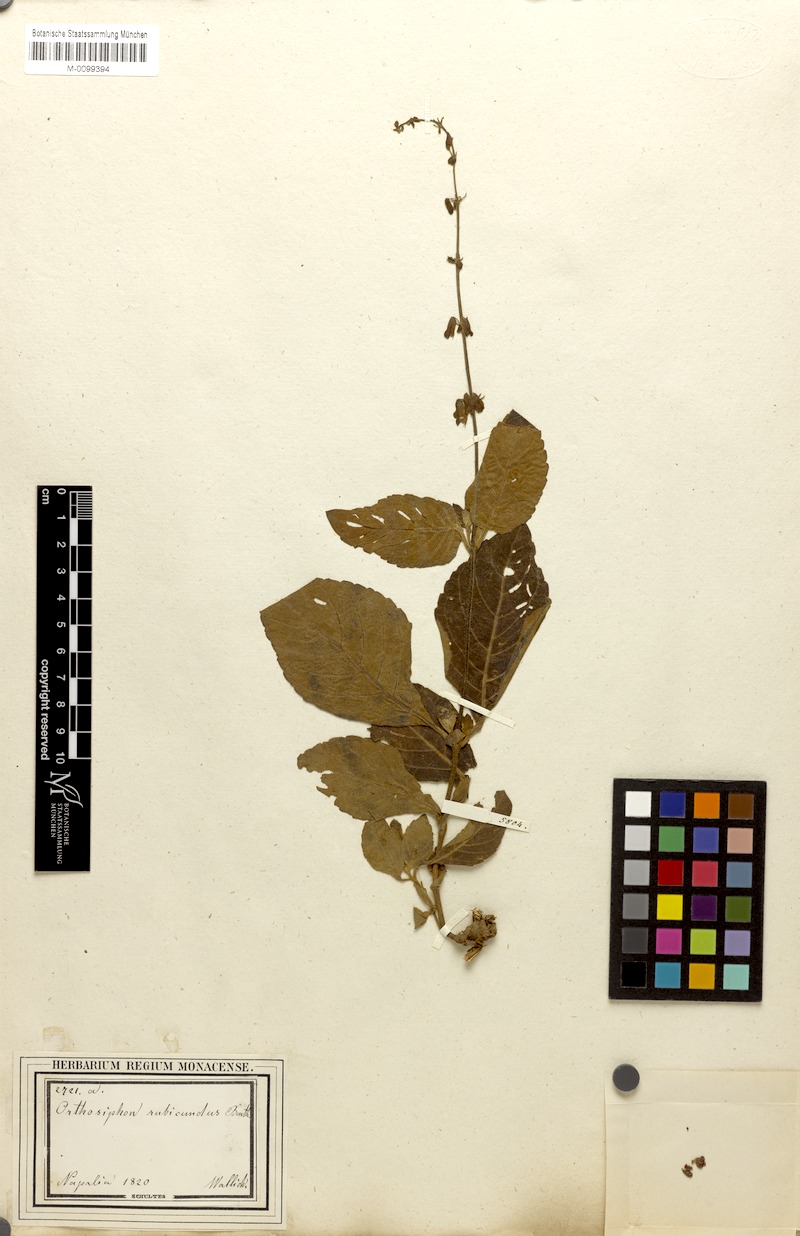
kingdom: Plantae
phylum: Tracheophyta
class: Magnoliopsida
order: Lamiales
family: Lamiaceae
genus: Orthosiphon
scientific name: Orthosiphon rubicundus
